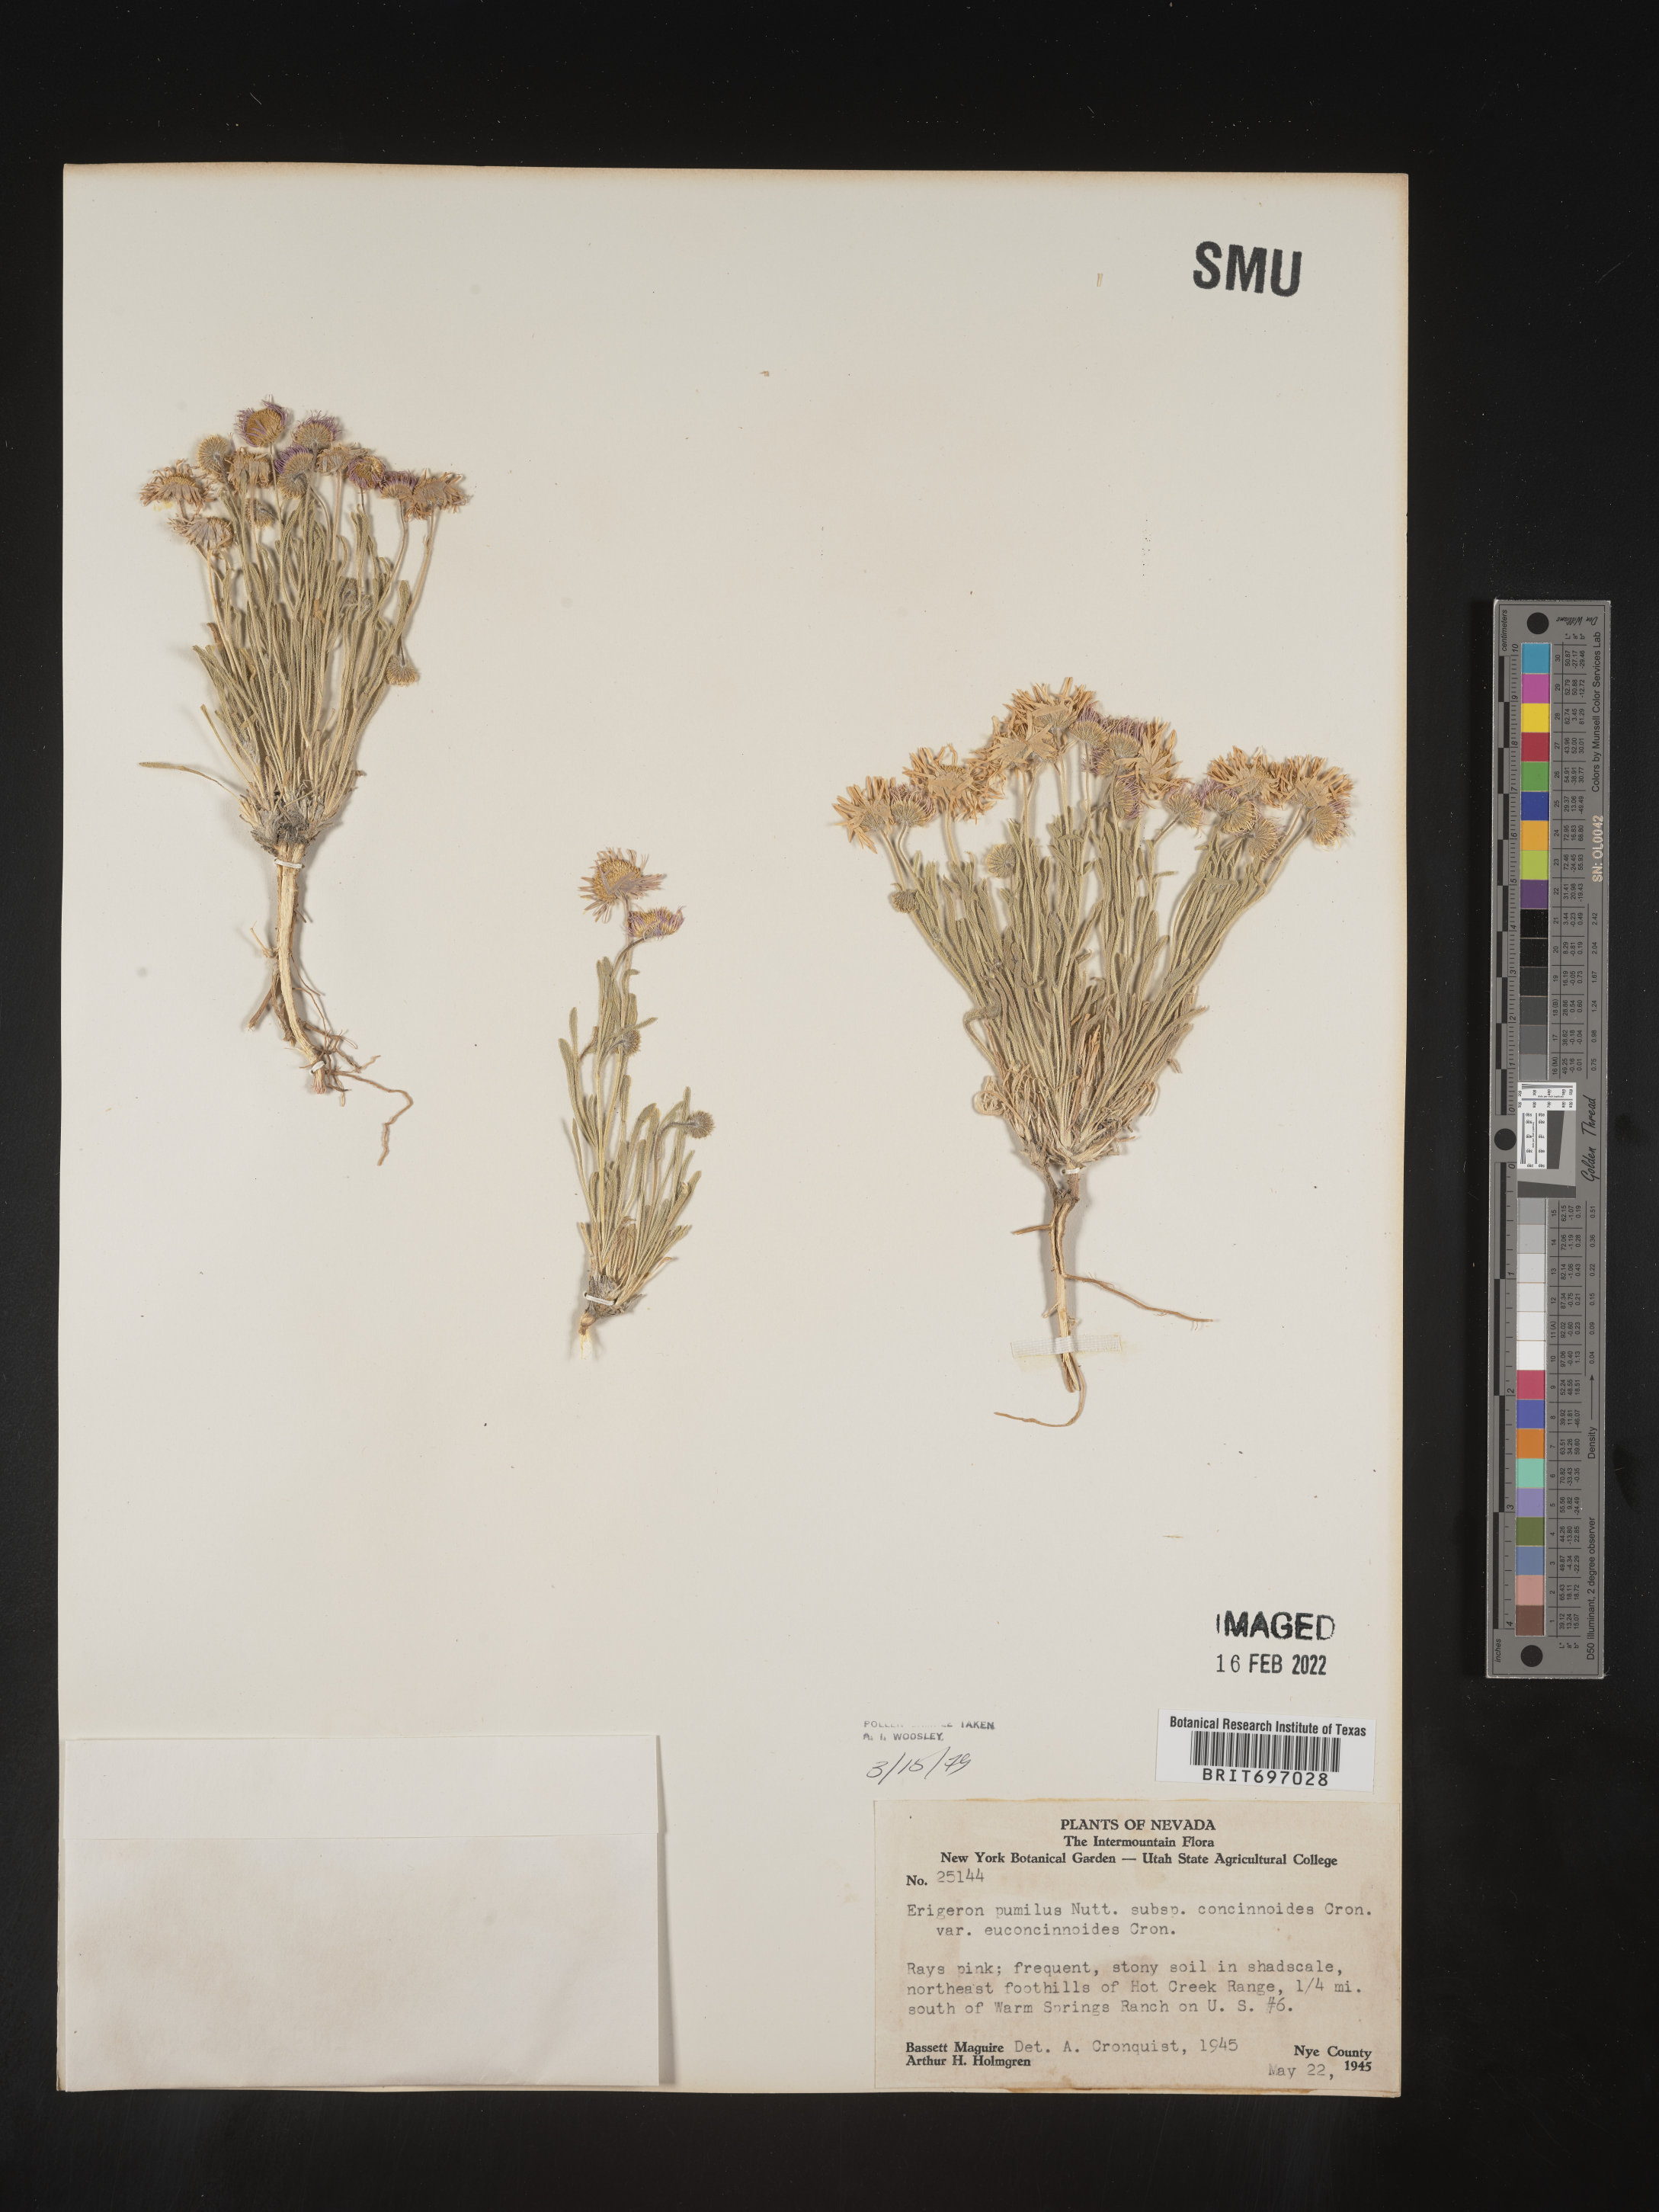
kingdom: Plantae
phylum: Tracheophyta
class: Magnoliopsida
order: Asterales
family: Asteraceae
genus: Erigeron
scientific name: Erigeron concinnus
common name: Navajo fleabane
